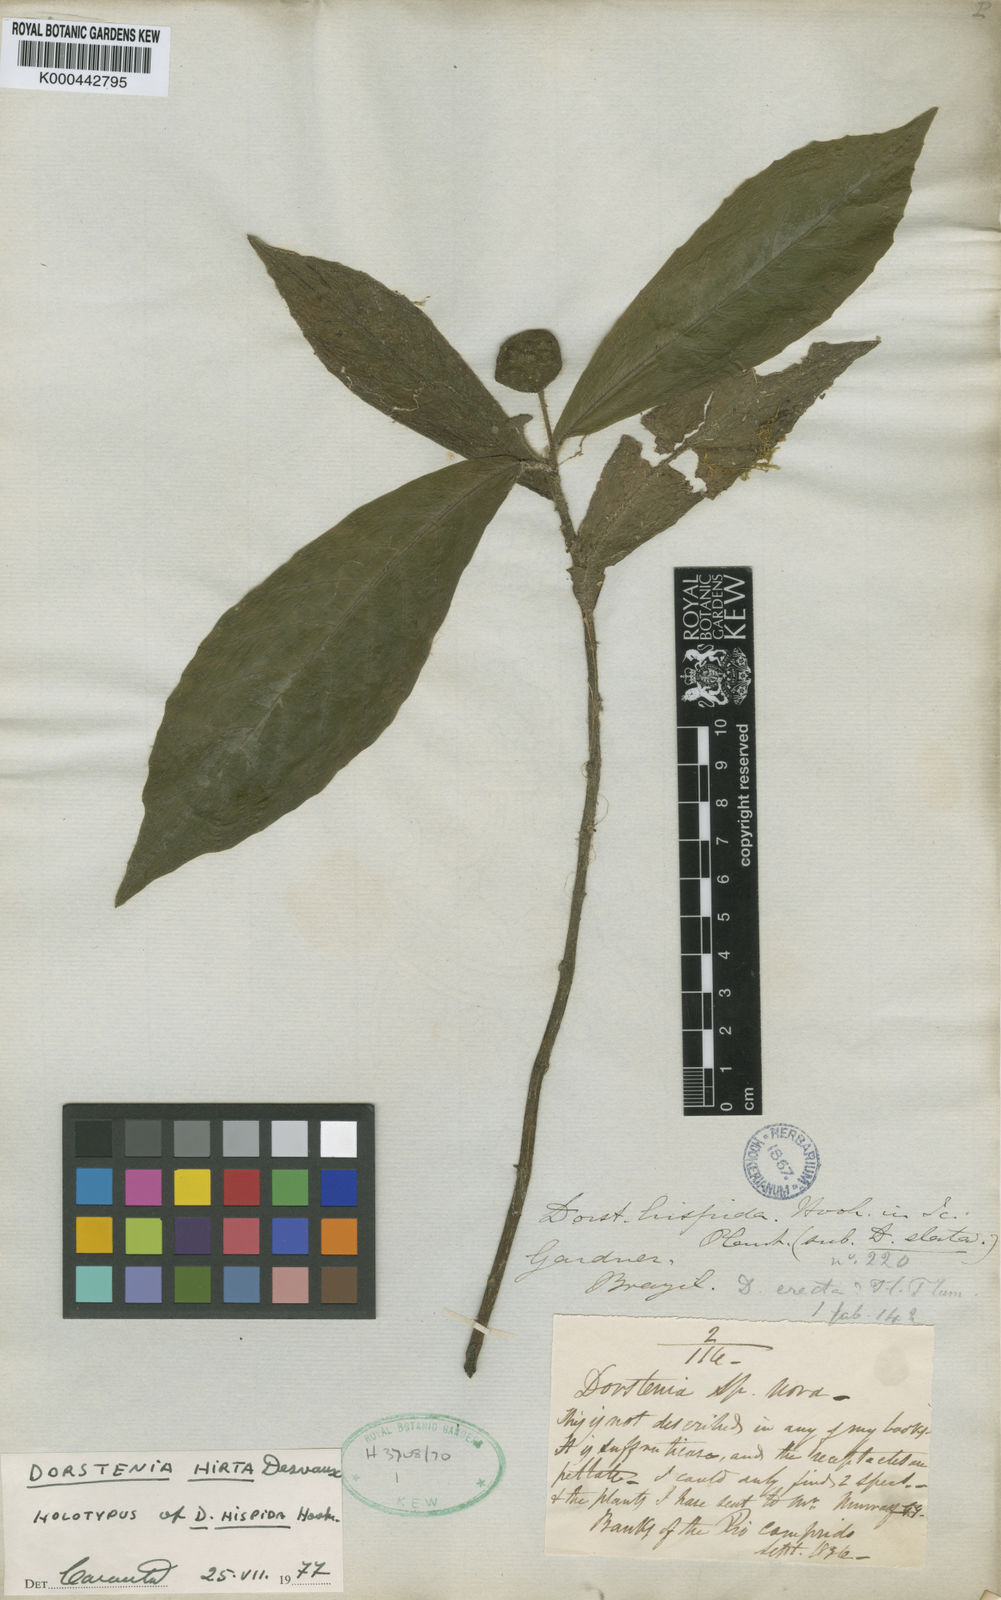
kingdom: Plantae
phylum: Tracheophyta
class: Magnoliopsida
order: Rosales
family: Moraceae
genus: Dorstenia
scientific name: Dorstenia hirta
